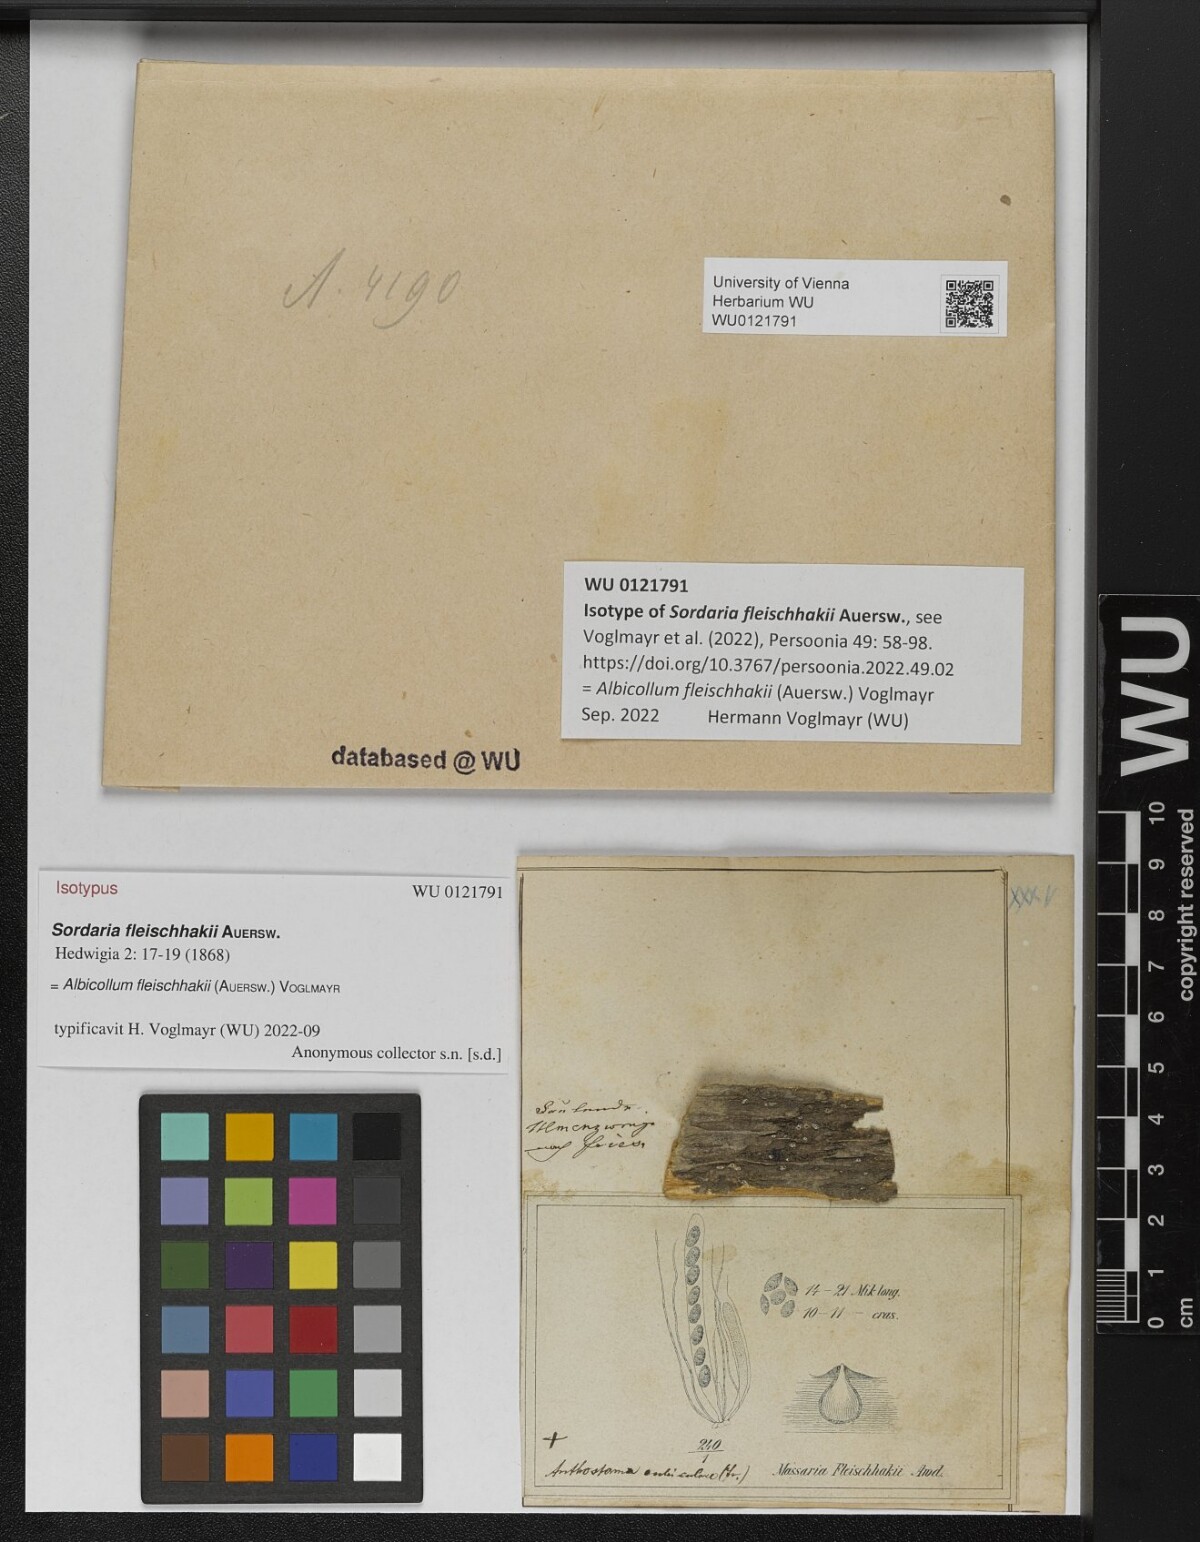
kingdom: Fungi
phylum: Ascomycota
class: Sordariomycetes
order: Xylariales
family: Xylariaceae
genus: Albicollum
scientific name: Albicollum fleischhakii
